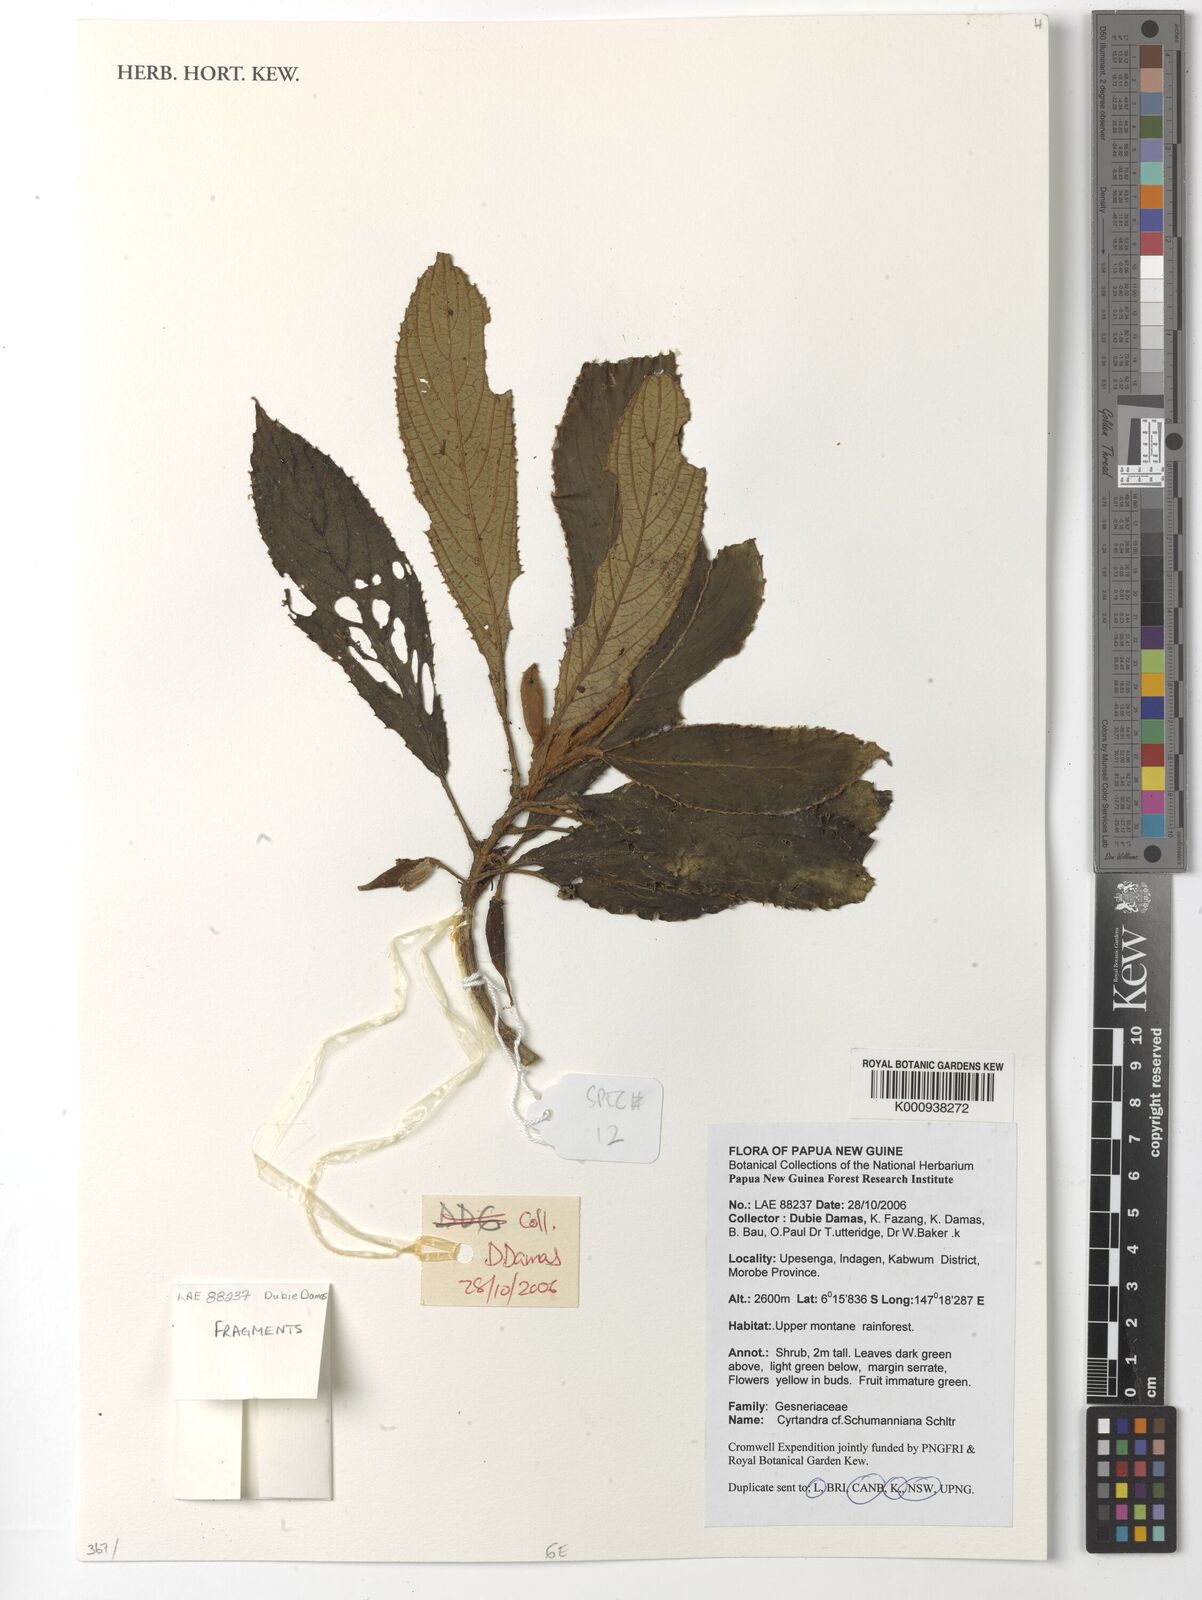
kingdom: Plantae
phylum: Tracheophyta
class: Magnoliopsida
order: Lamiales
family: Gesneriaceae
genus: Cyrtandra
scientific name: Cyrtandra schumanniana
